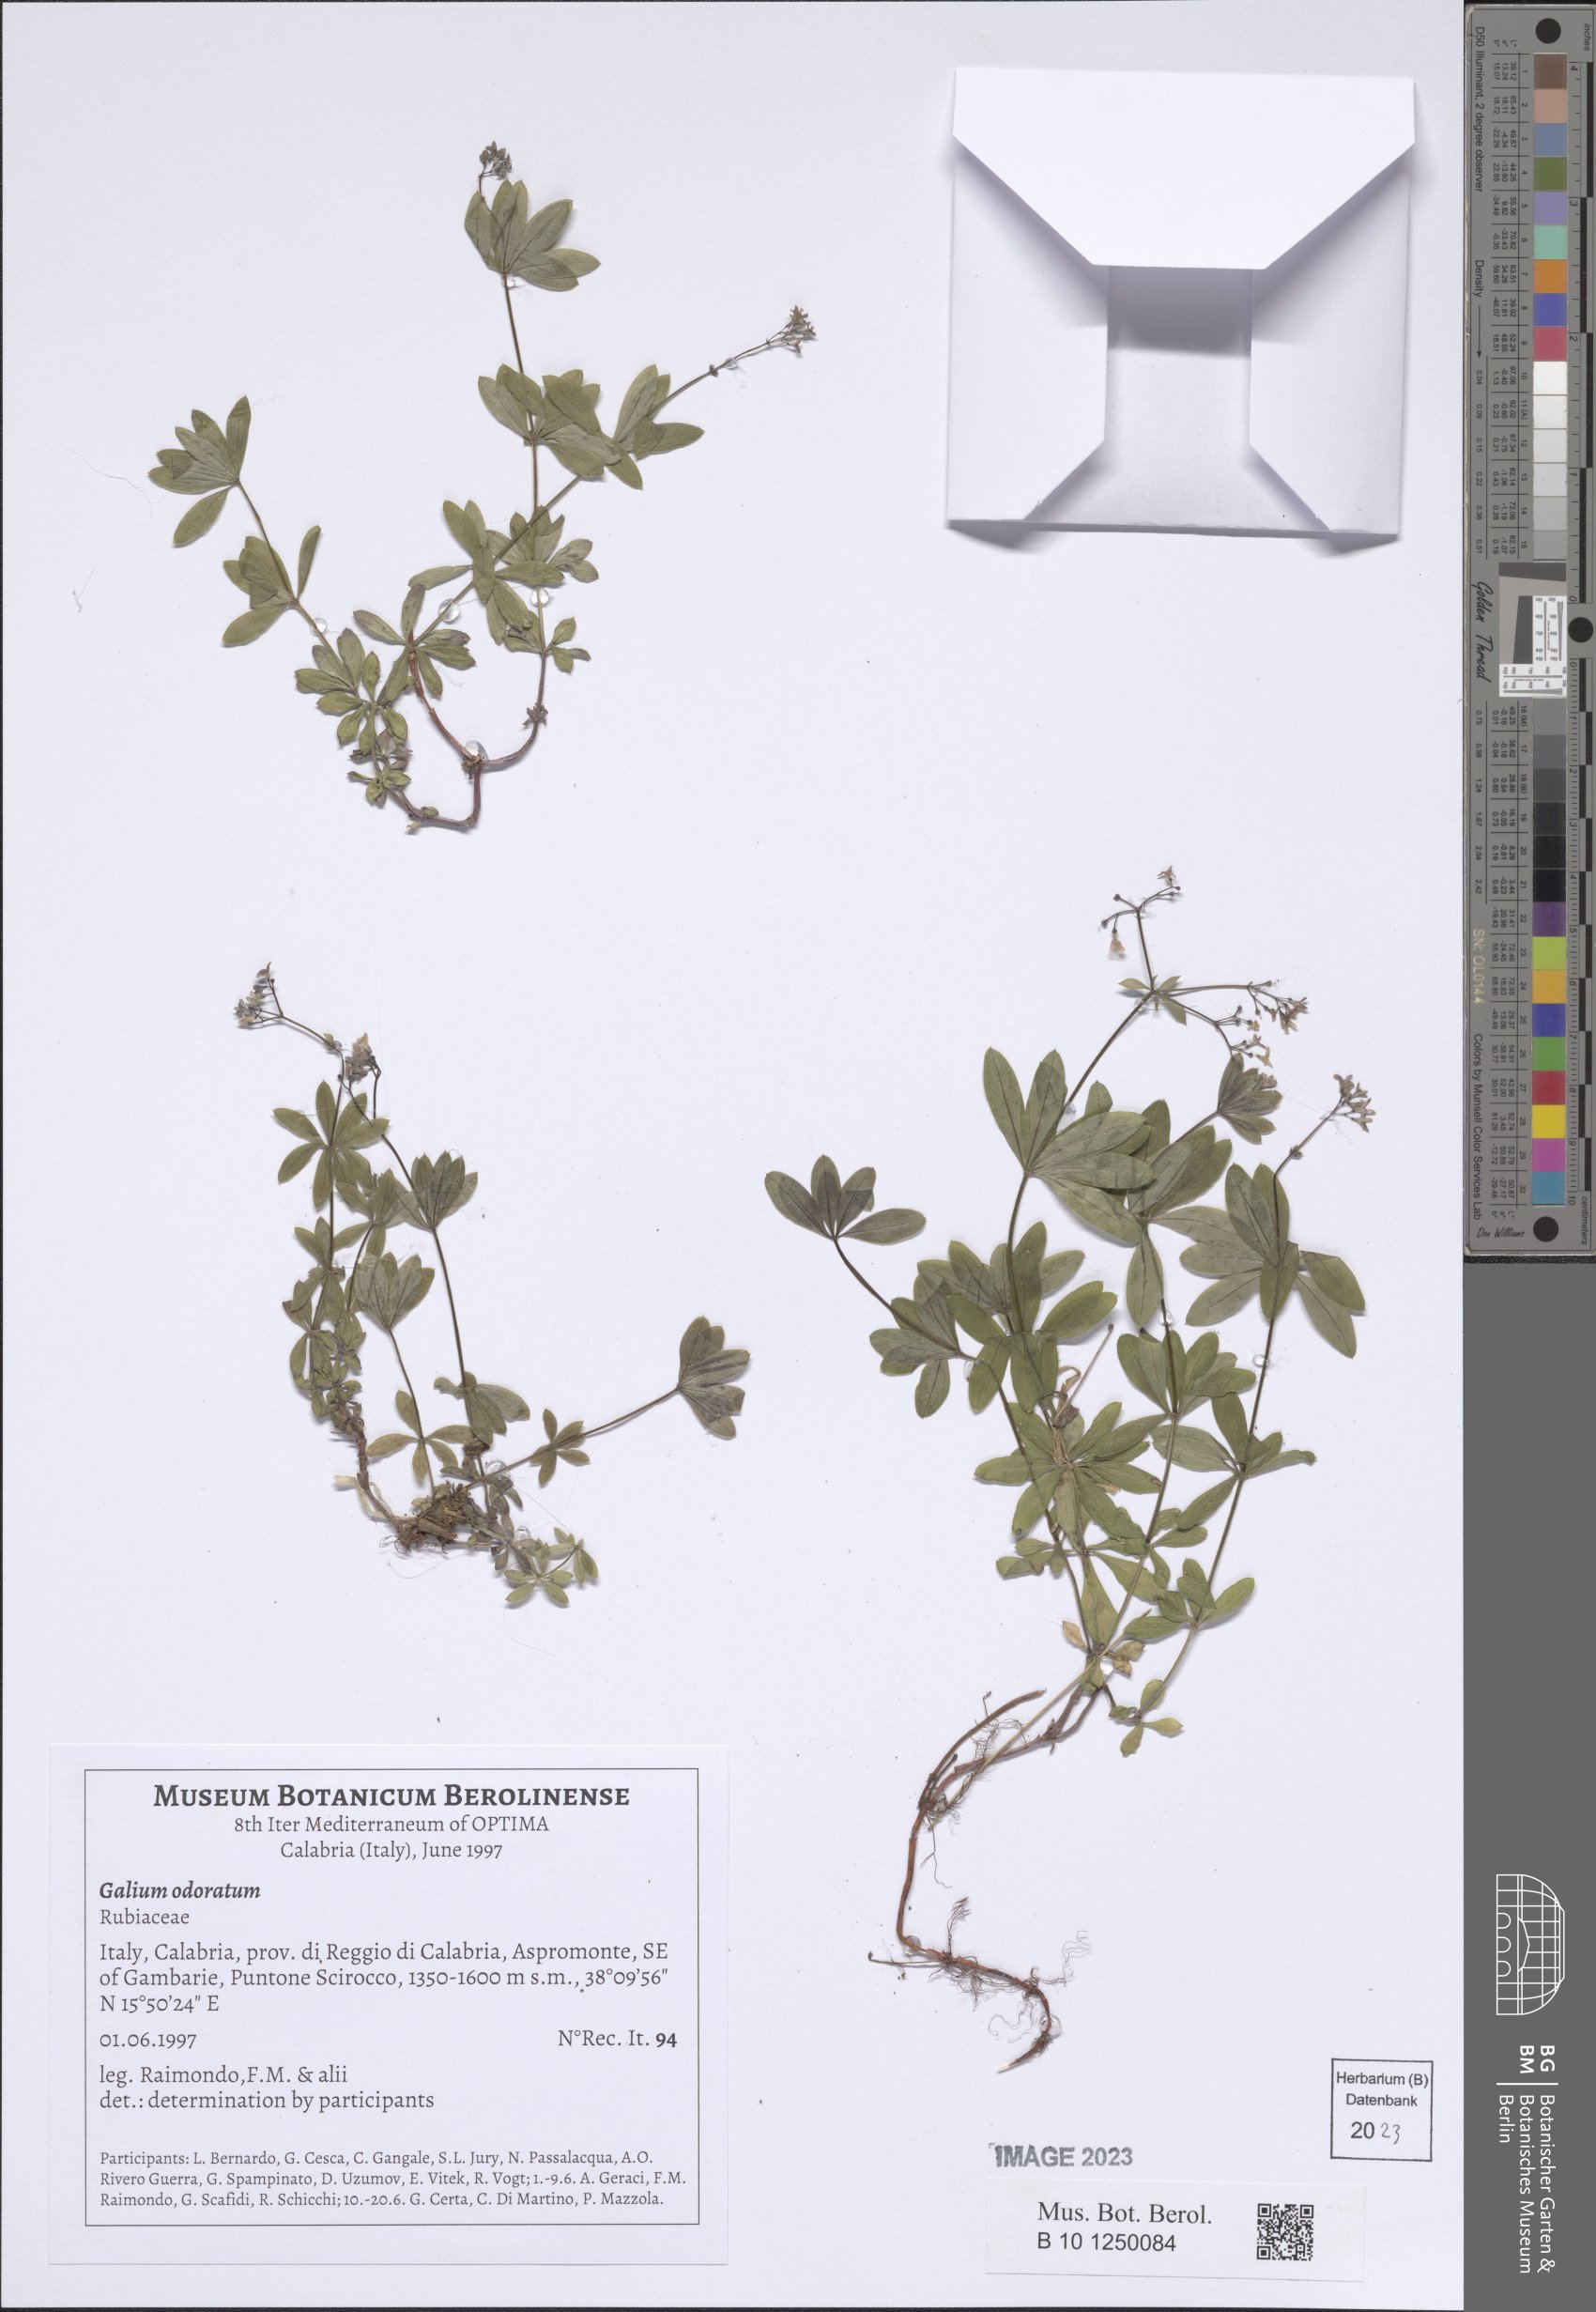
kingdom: Plantae
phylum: Tracheophyta
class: Magnoliopsida
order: Gentianales
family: Rubiaceae
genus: Galium
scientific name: Galium odoratum
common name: Sweet woodruff
